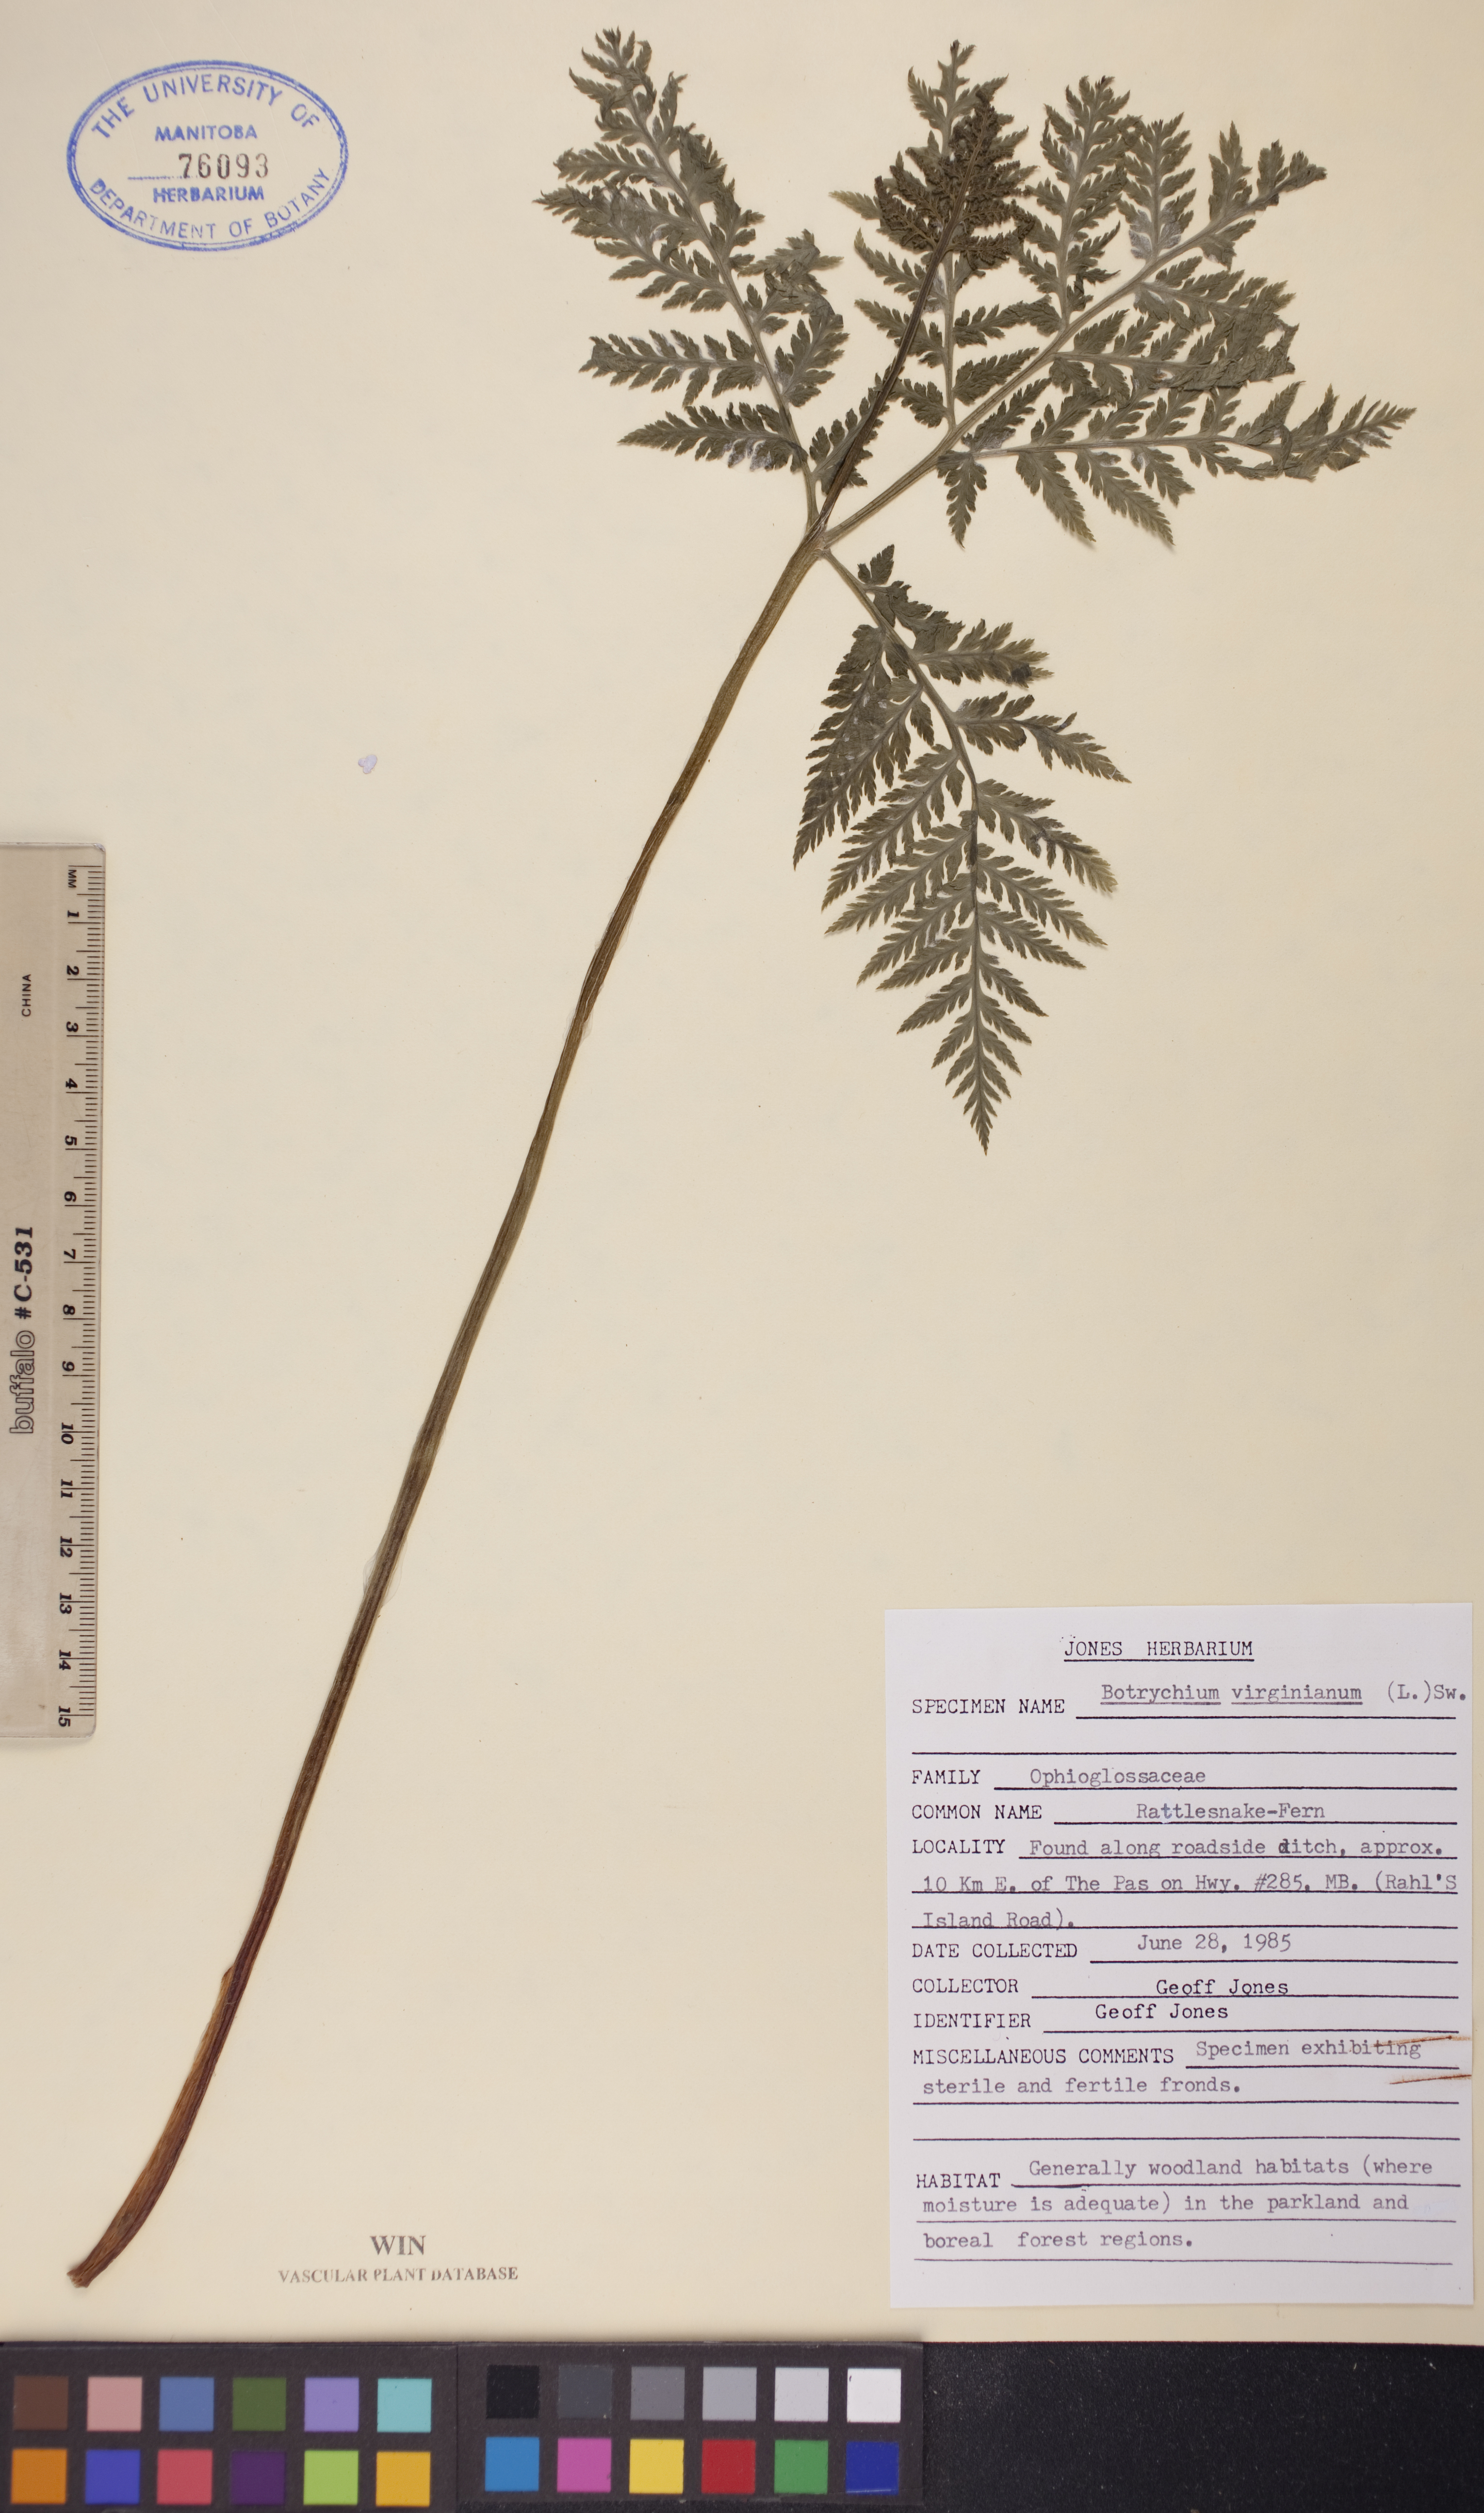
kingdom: Plantae
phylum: Tracheophyta
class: Polypodiopsida
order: Ophioglossales
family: Ophioglossaceae
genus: Botrypus
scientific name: Botrypus virginianus
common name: Common grapefern
